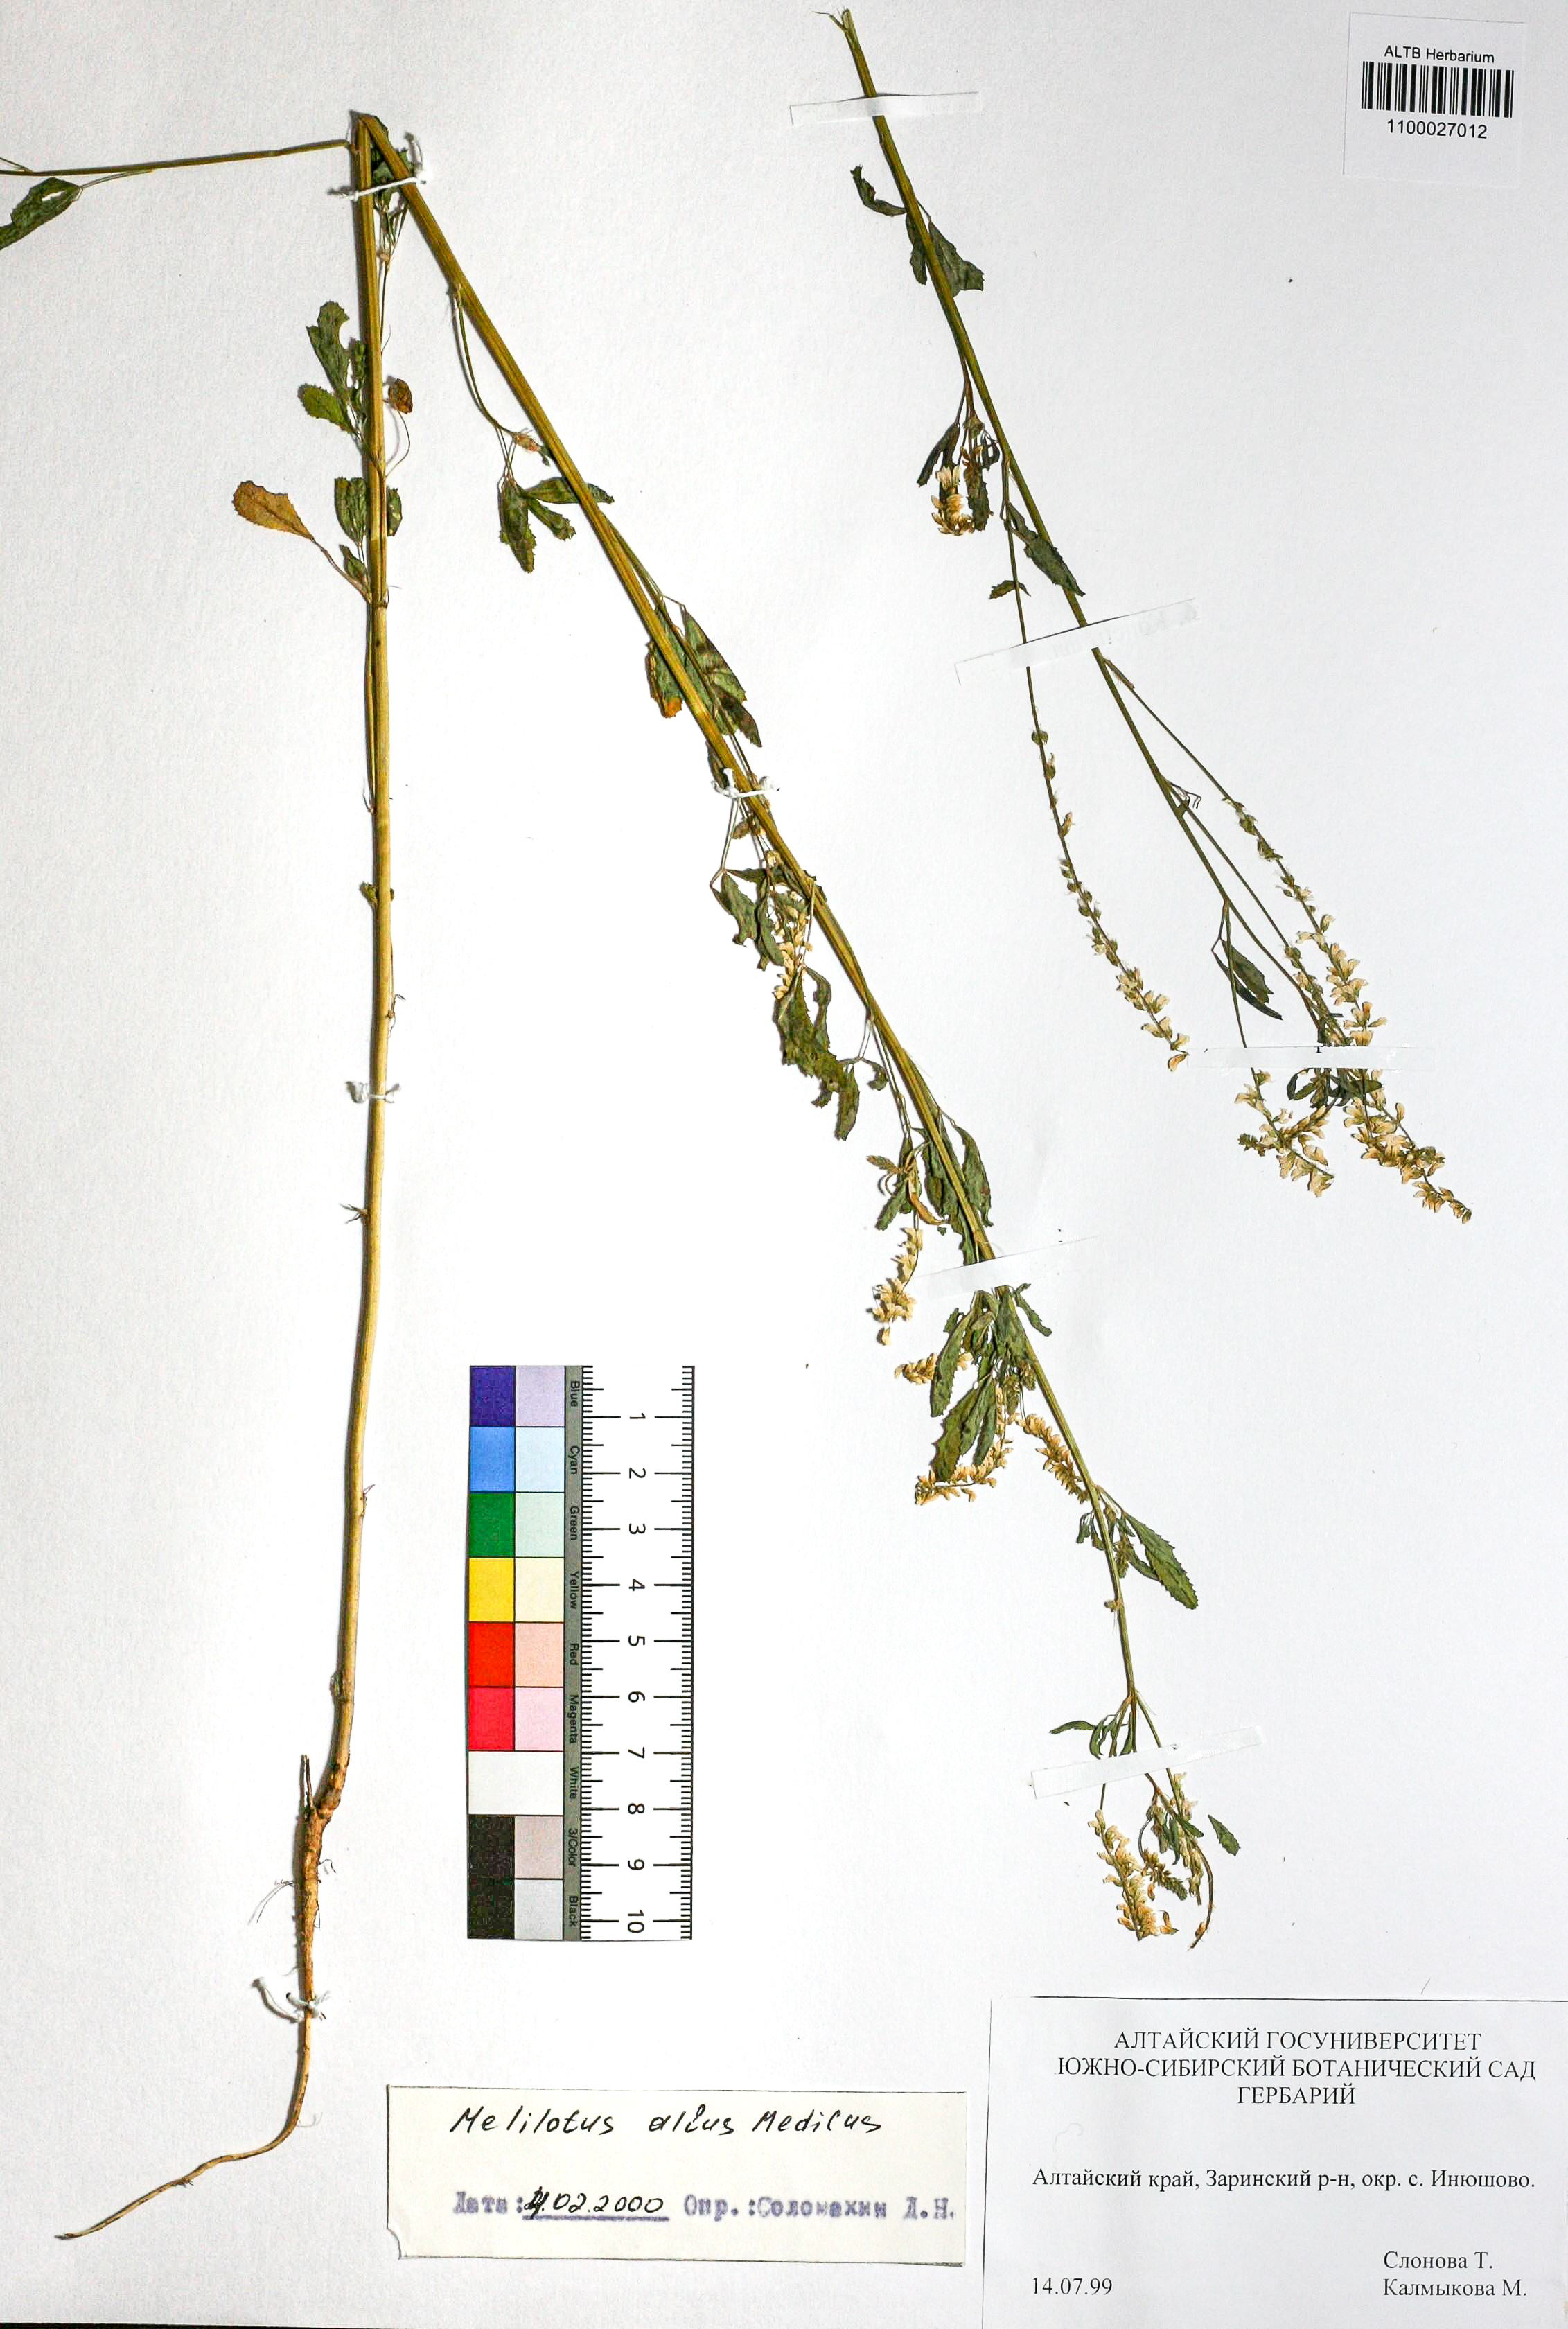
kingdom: Plantae
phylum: Tracheophyta
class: Magnoliopsida
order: Fabales
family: Fabaceae
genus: Melilotus
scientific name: Melilotus albus
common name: White melilot
